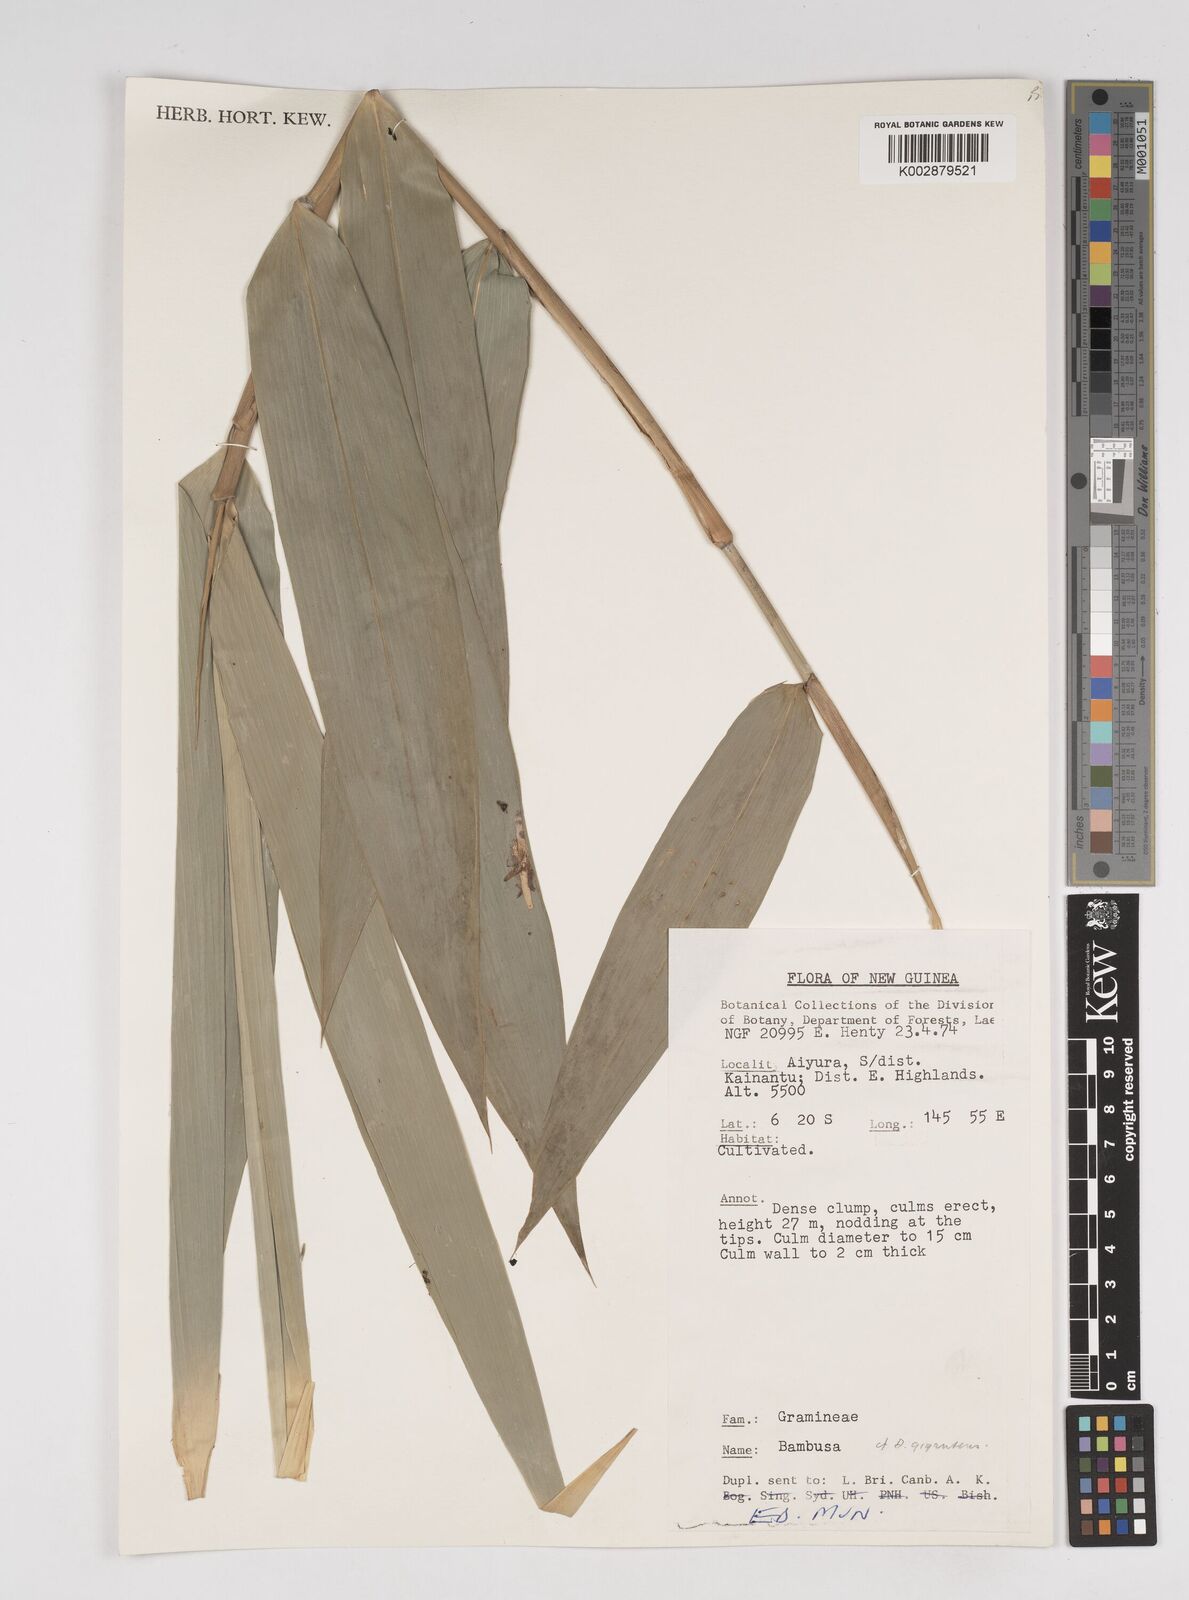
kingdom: Plantae
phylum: Tracheophyta
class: Liliopsida
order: Poales
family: Poaceae
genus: Dendrocalamus
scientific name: Dendrocalamus
